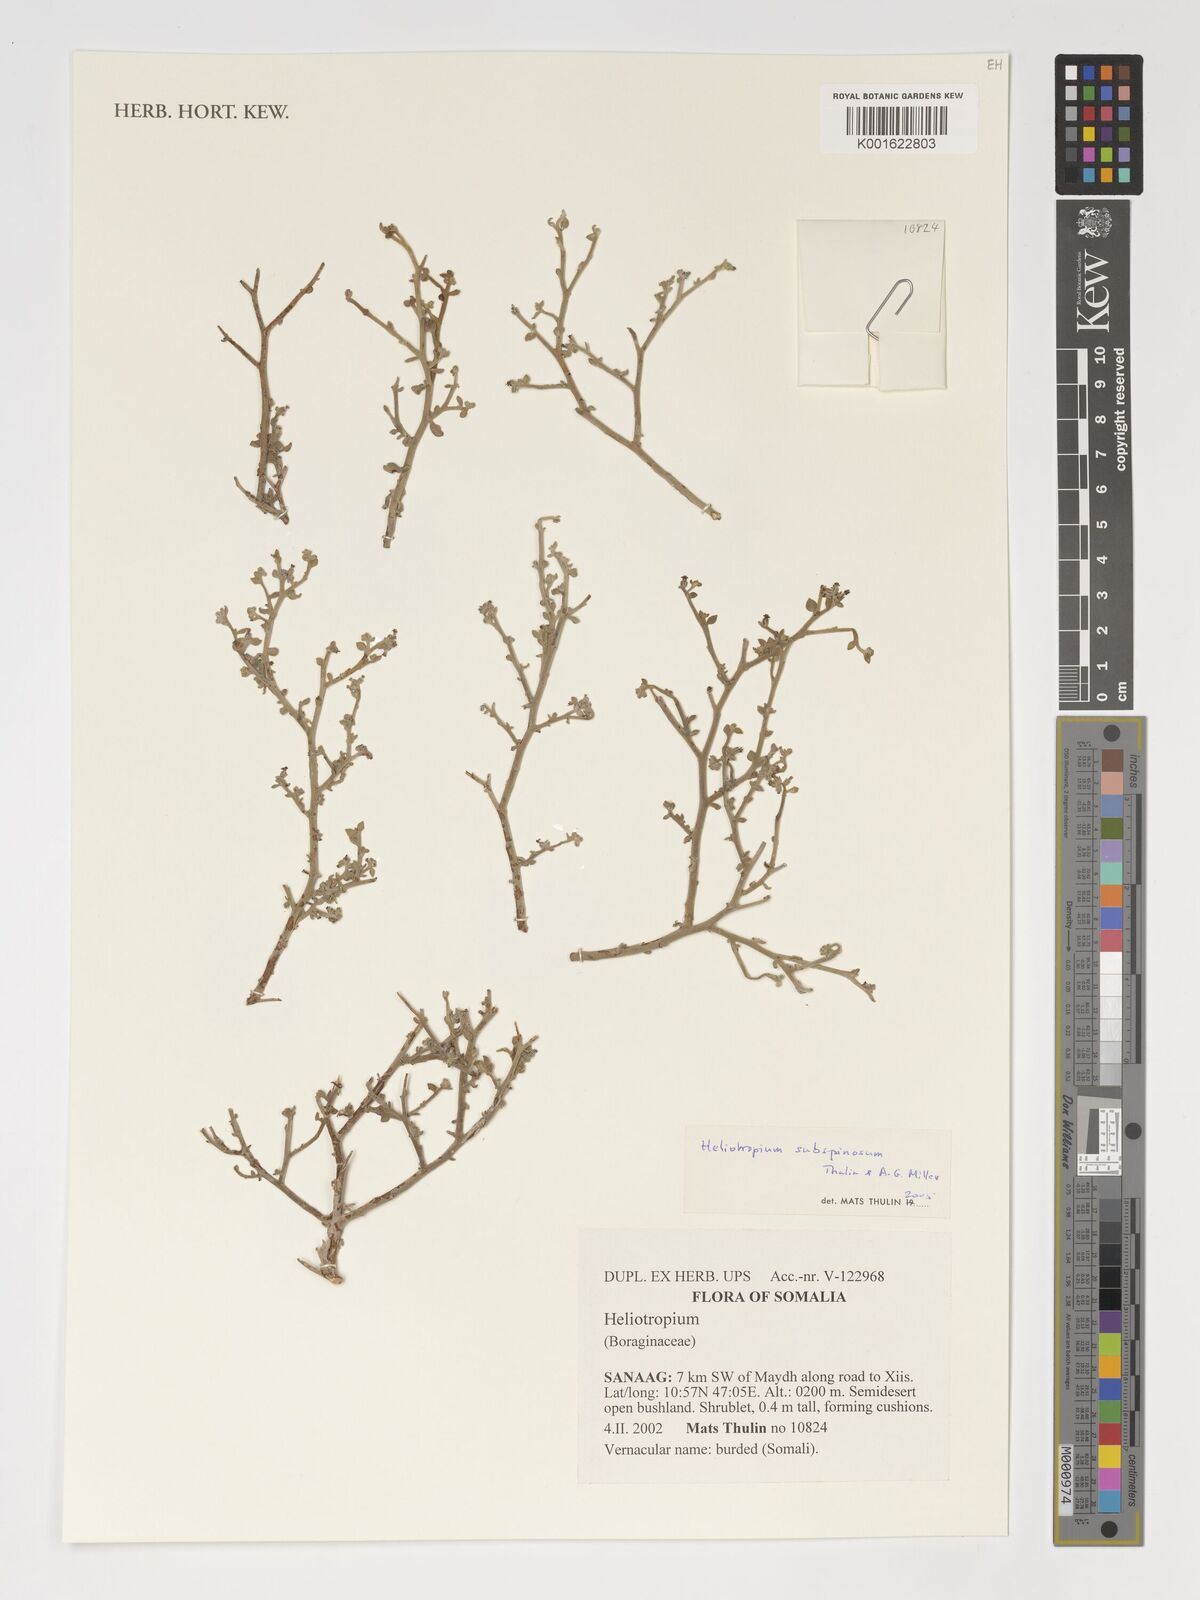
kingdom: Plantae
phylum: Tracheophyta
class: Magnoliopsida
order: Boraginales
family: Heliotropiaceae
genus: Heliotropium
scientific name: Heliotropium subspinosum
